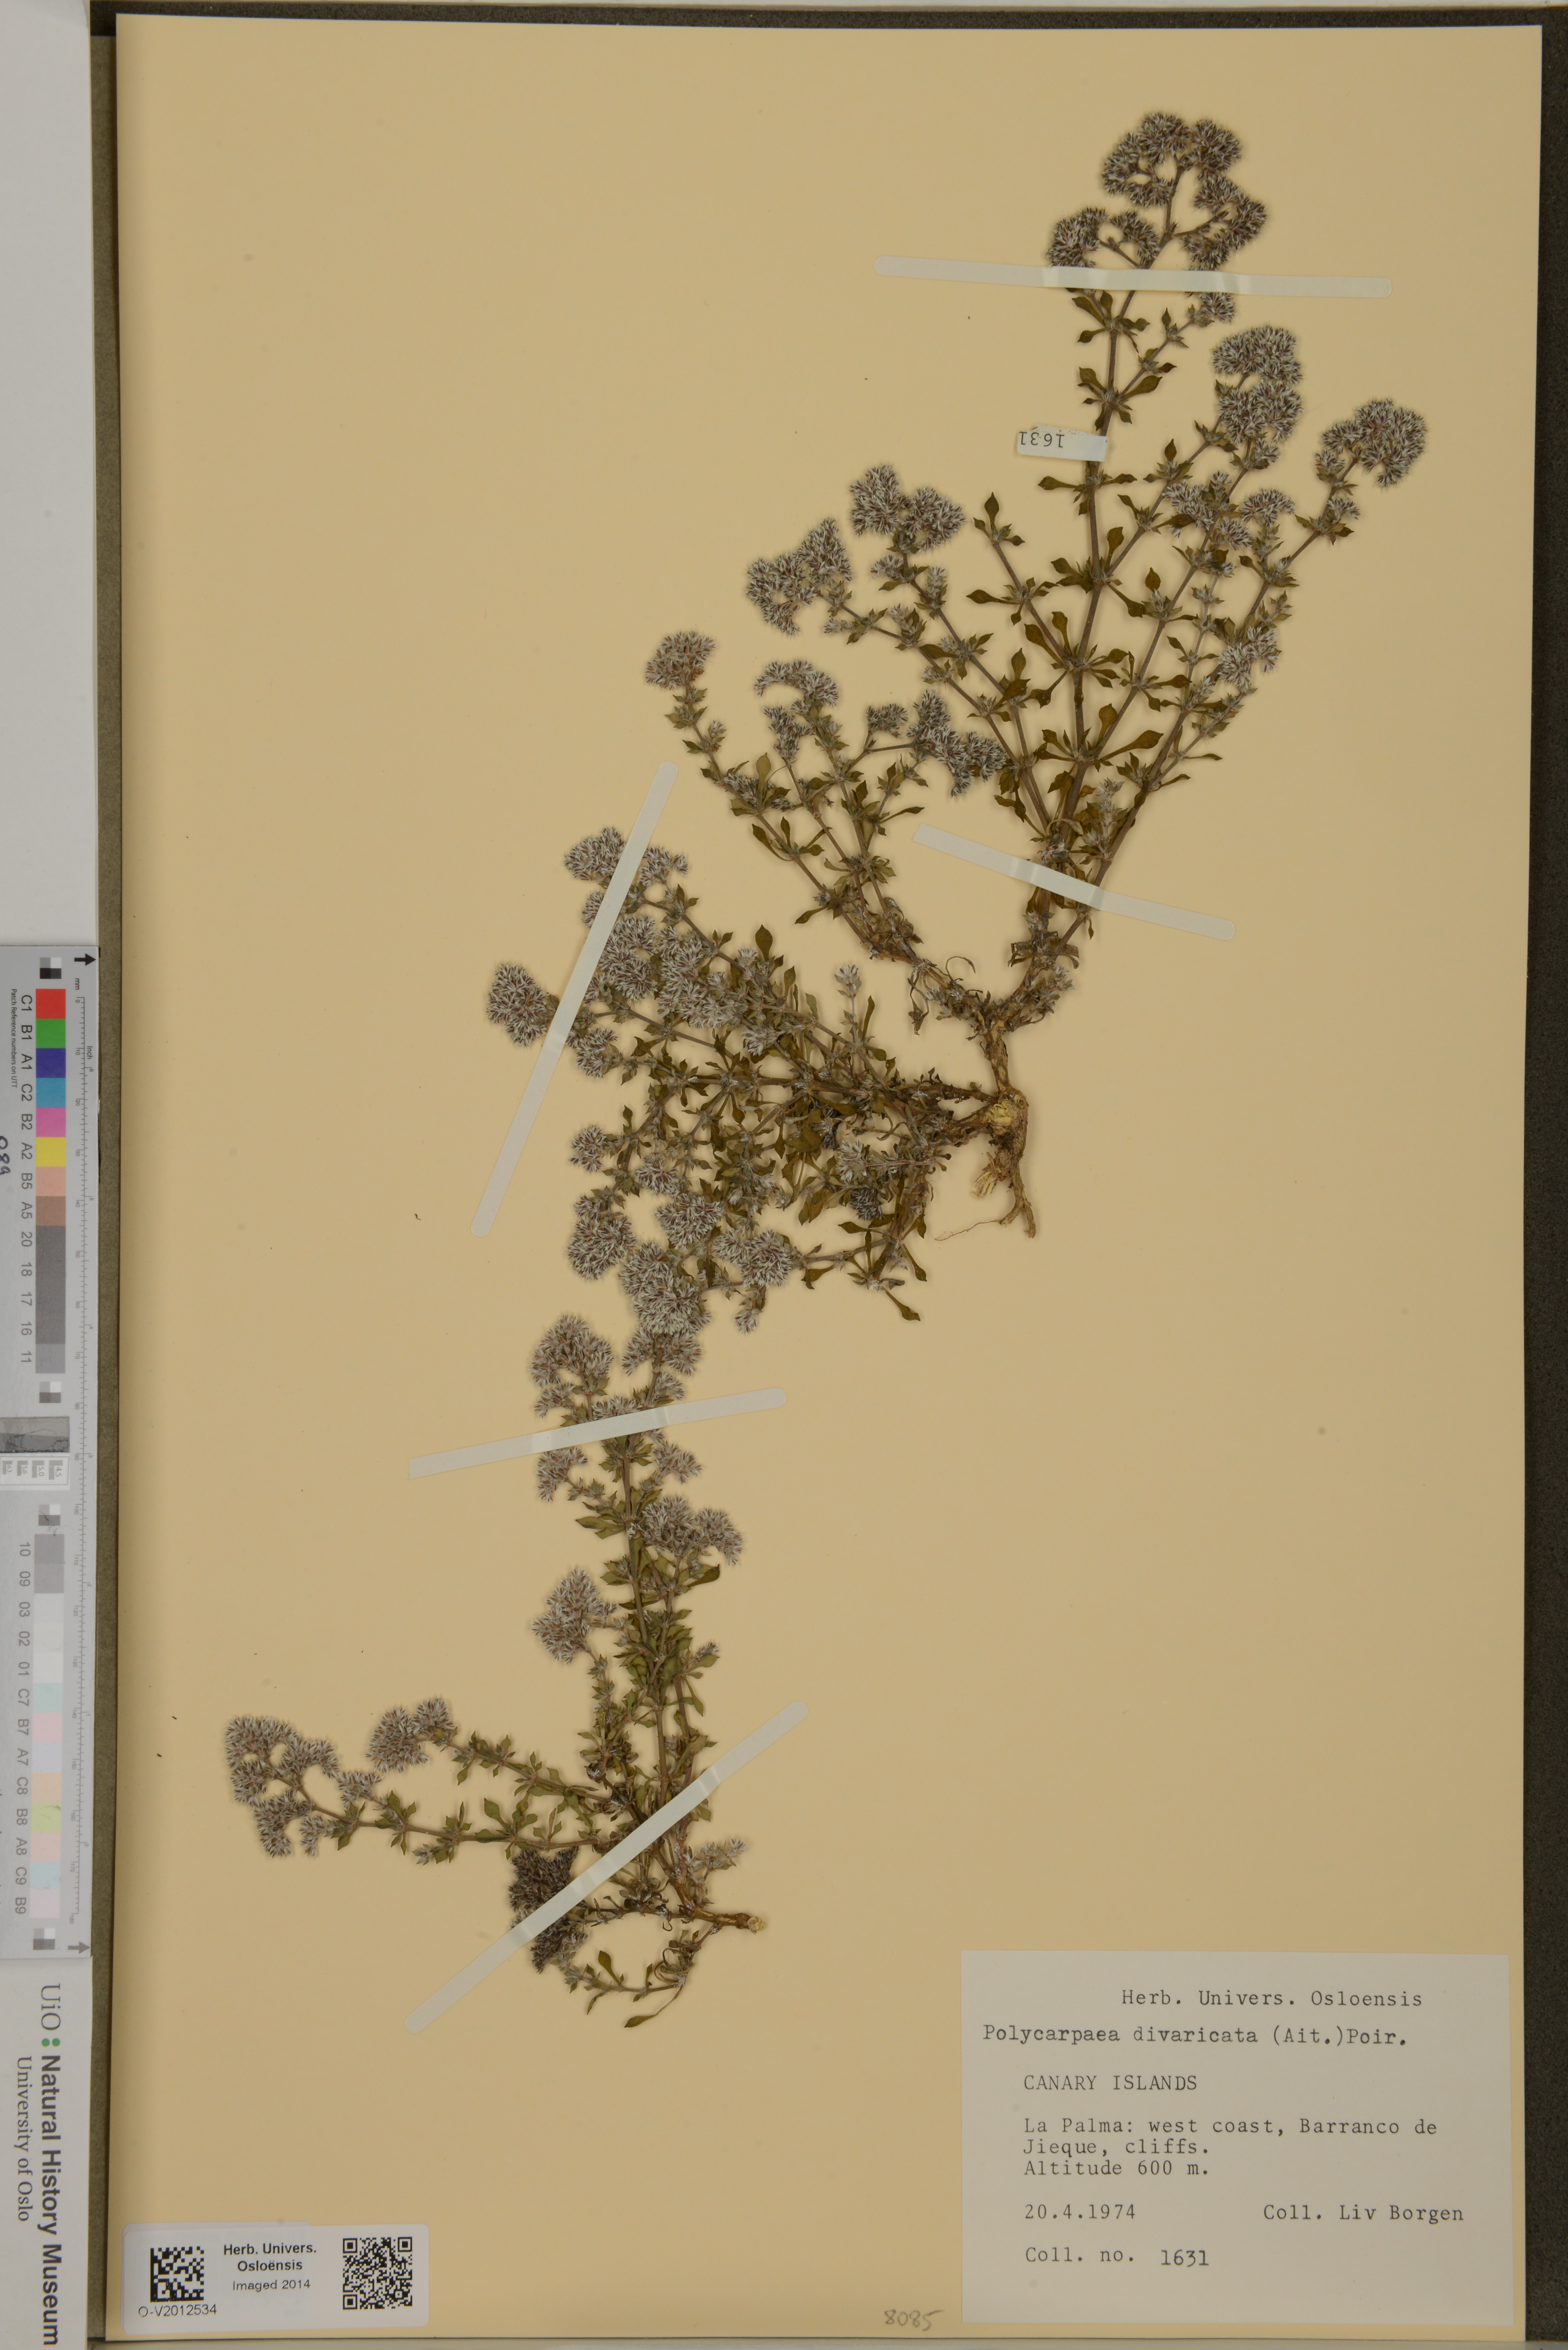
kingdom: Plantae
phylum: Tracheophyta
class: Magnoliopsida
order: Caryophyllales
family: Caryophyllaceae
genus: Polycarpaea
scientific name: Polycarpaea divaricata
